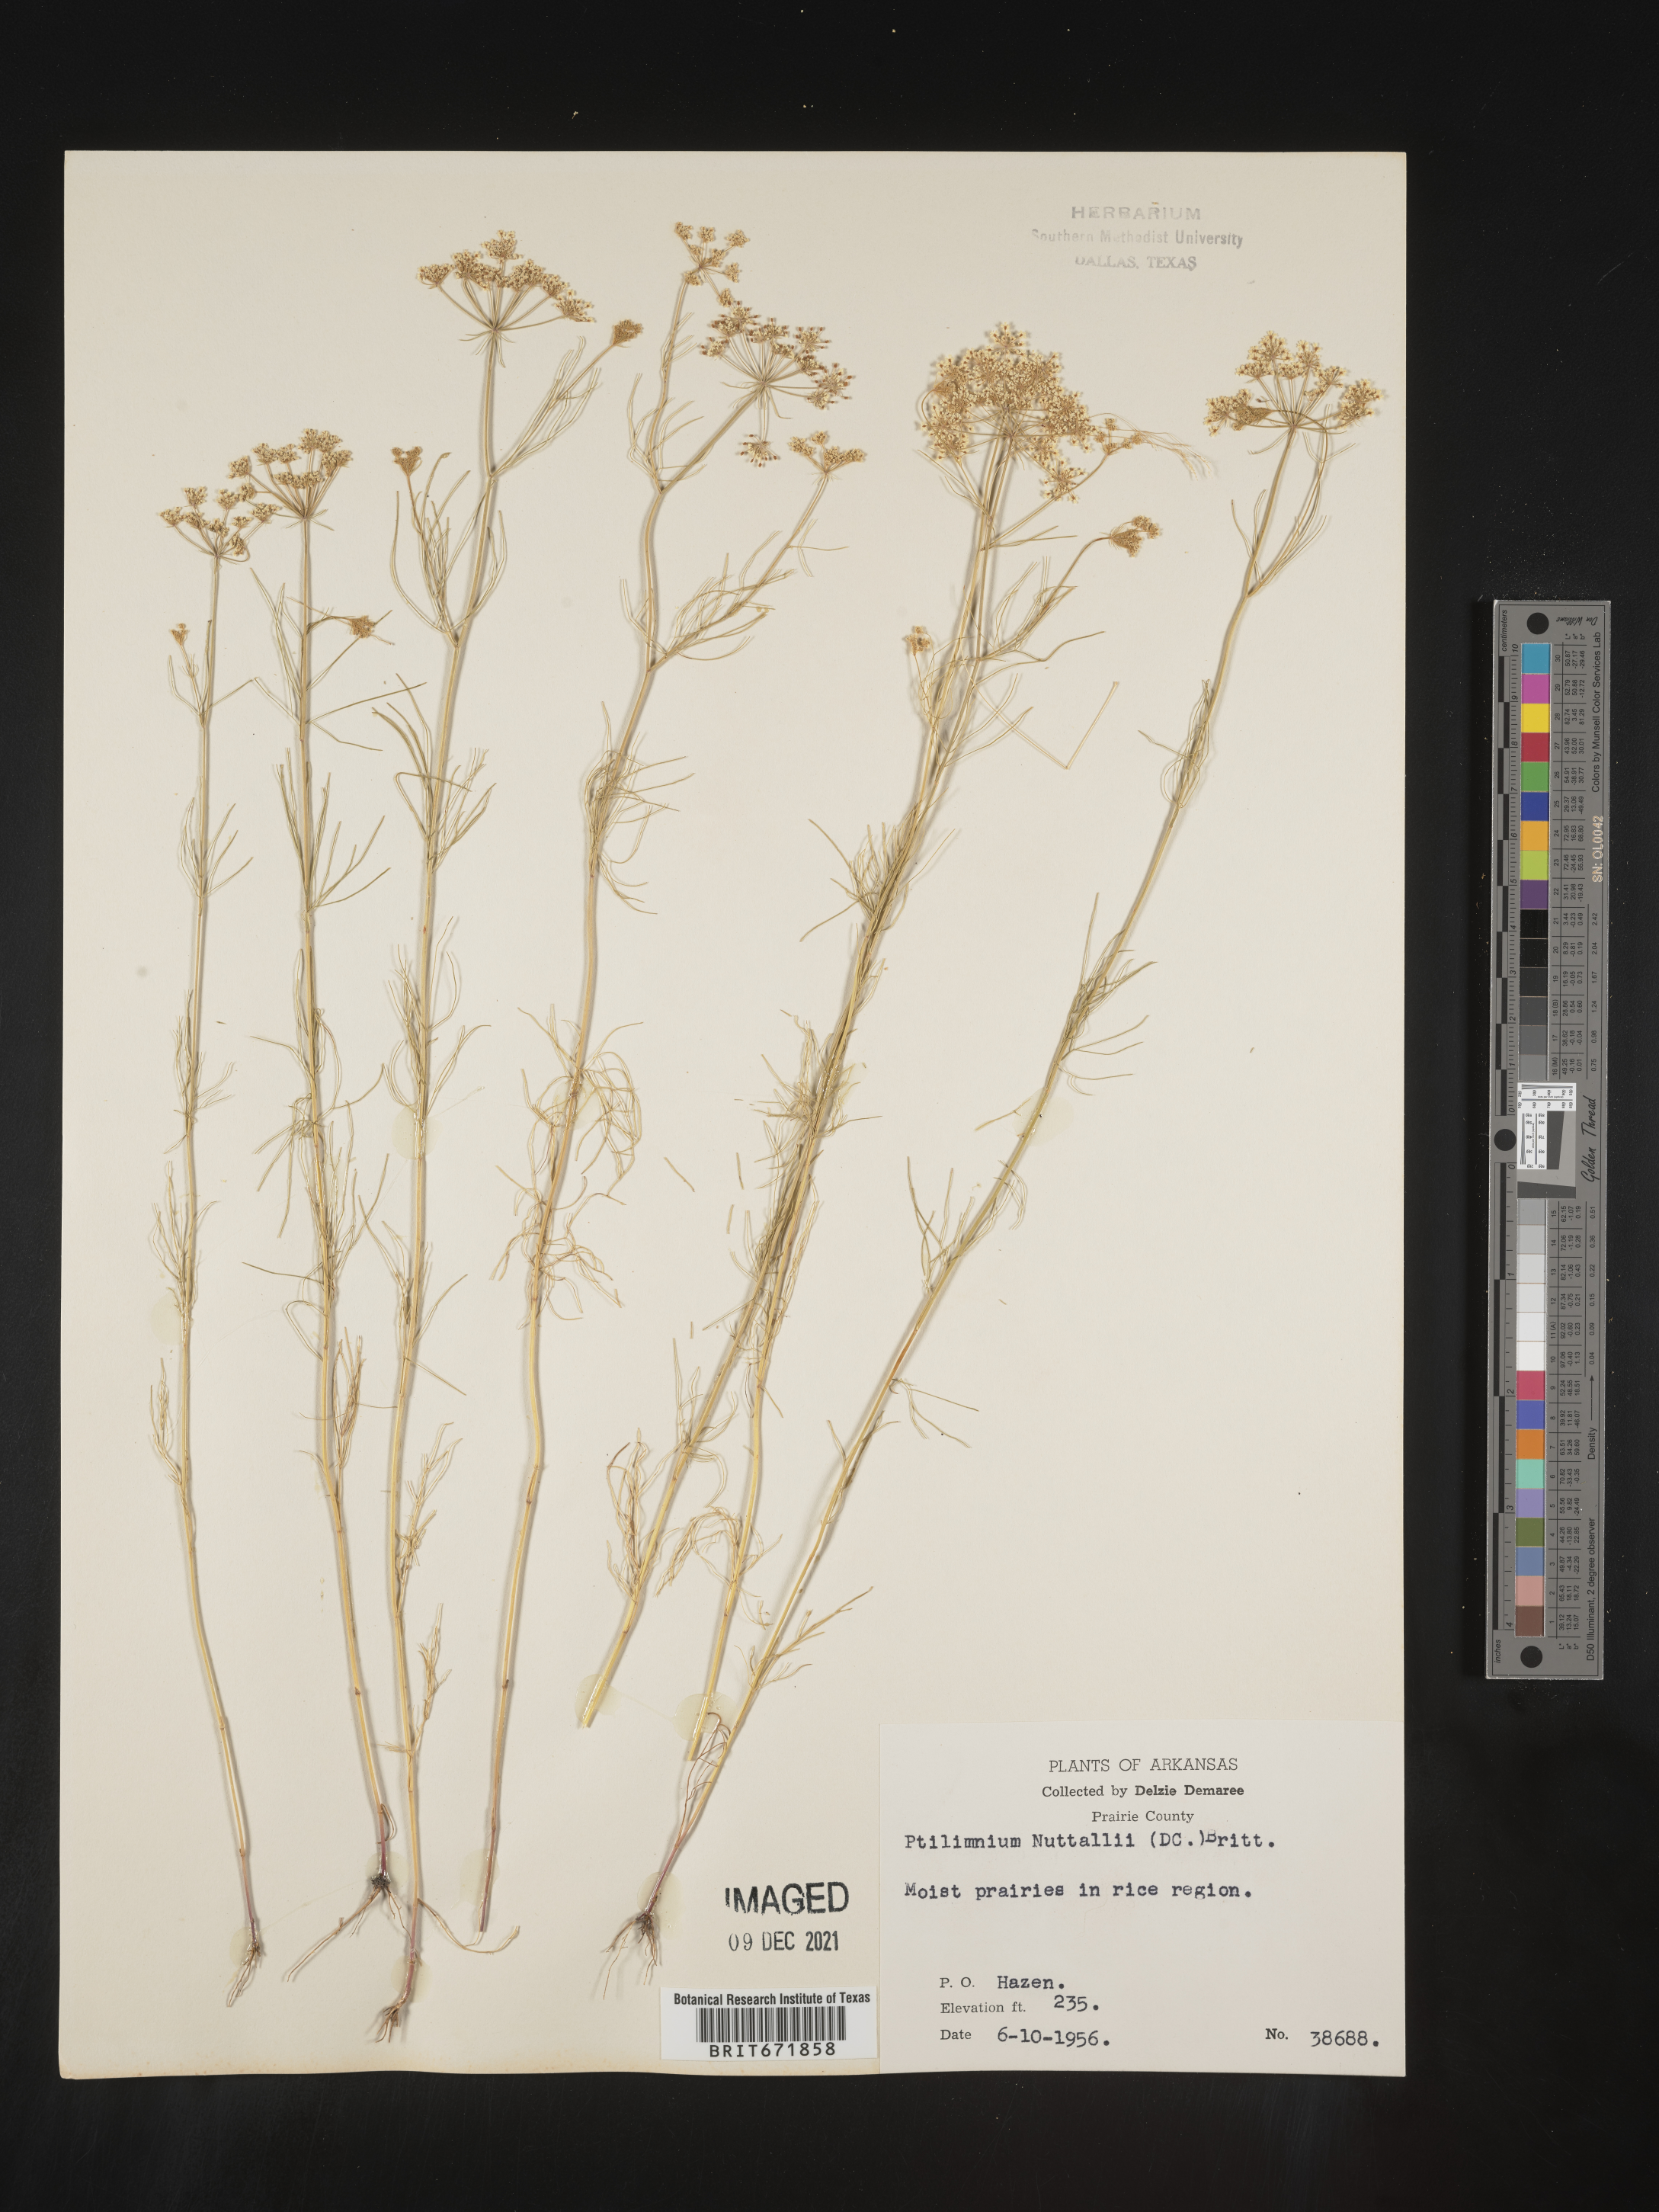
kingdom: Plantae
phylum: Tracheophyta
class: Magnoliopsida
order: Apiales
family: Apiaceae
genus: Ptilimnium
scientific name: Ptilimnium nuttallii
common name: Ozark bishop's-weed
